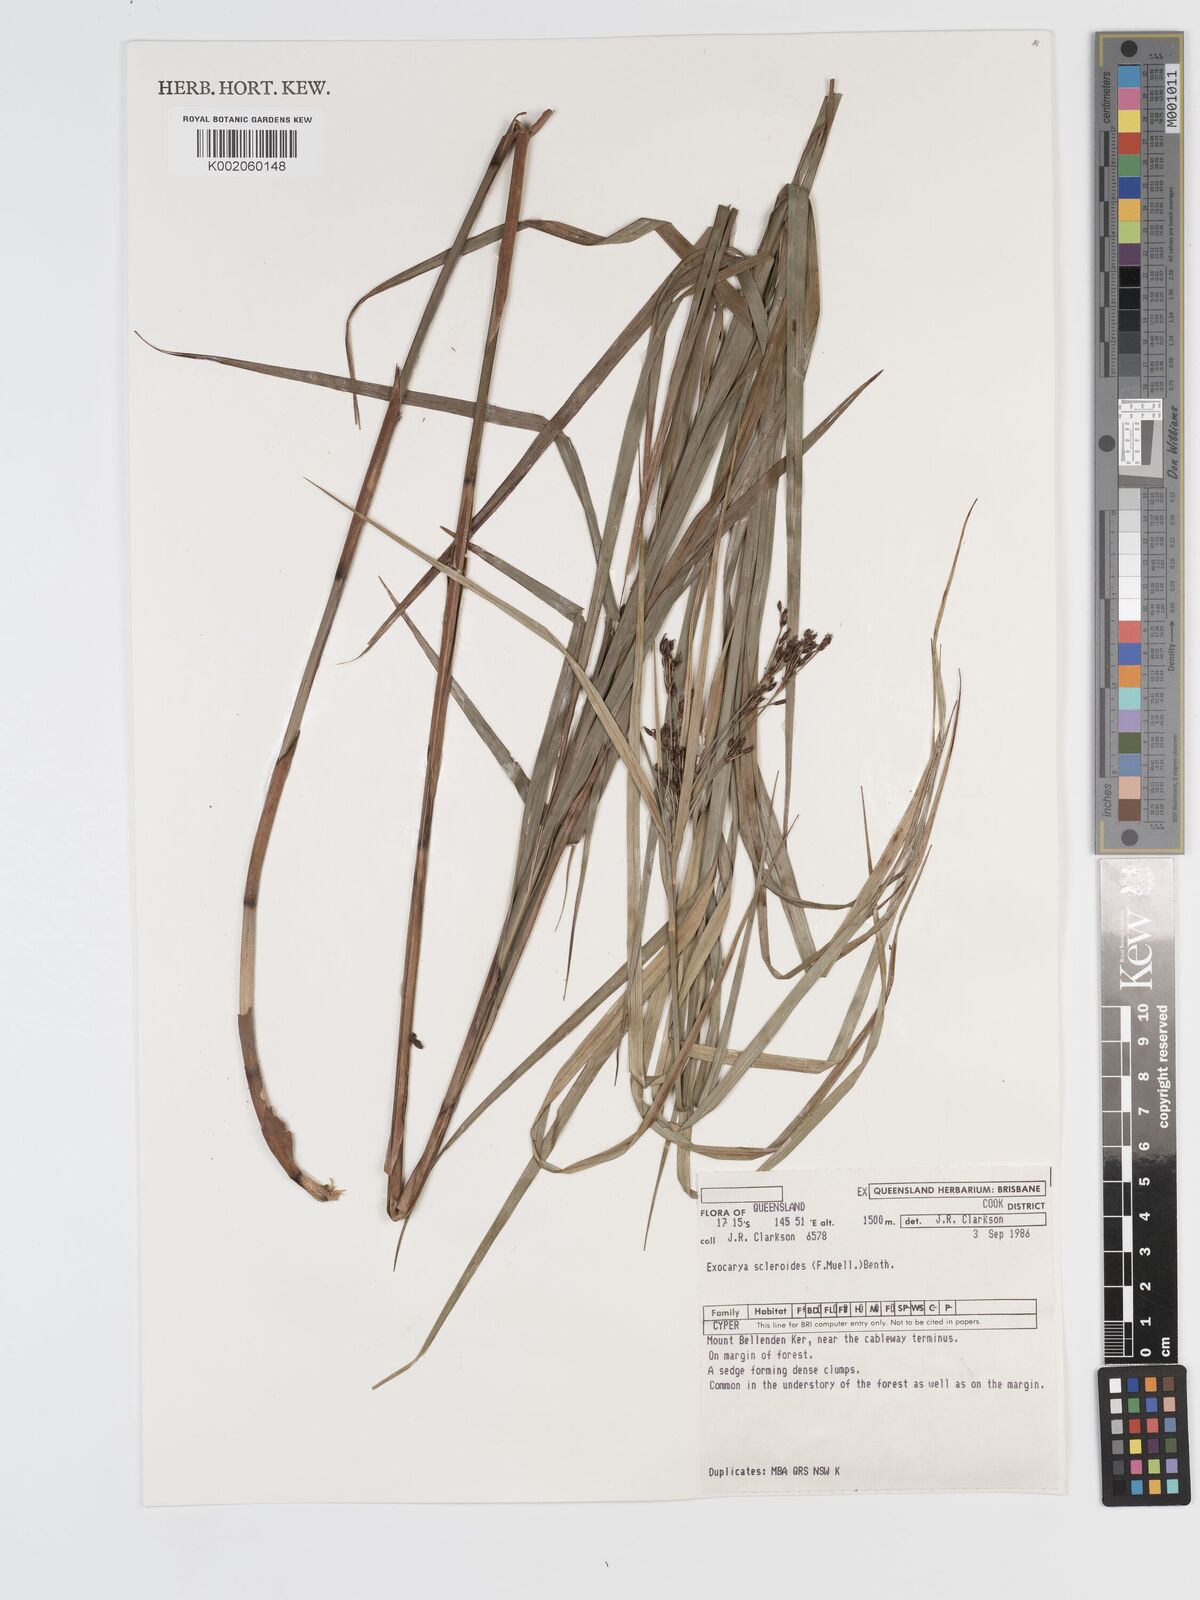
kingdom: Plantae
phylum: Tracheophyta
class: Liliopsida
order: Poales
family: Cyperaceae
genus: Exocarya
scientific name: Exocarya sclerioides
